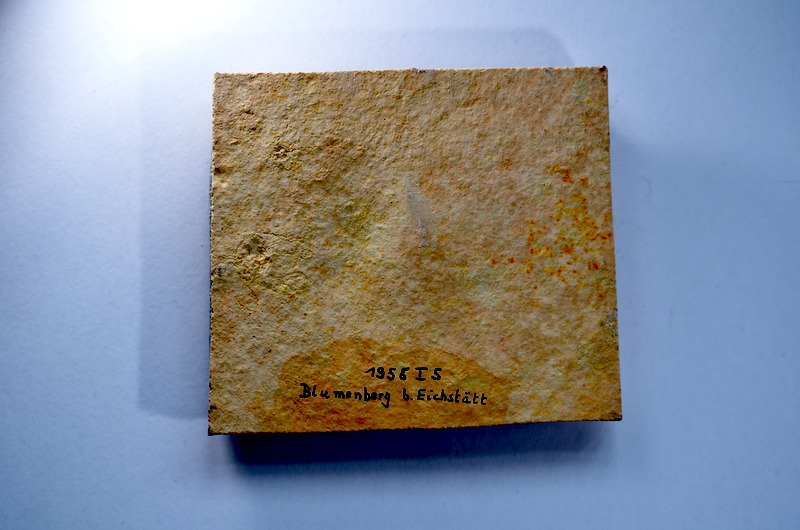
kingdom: Animalia
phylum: Chordata
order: Salmoniformes
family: Orthogonikleithridae
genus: Leptolepides
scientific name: Leptolepides sprattiformis
